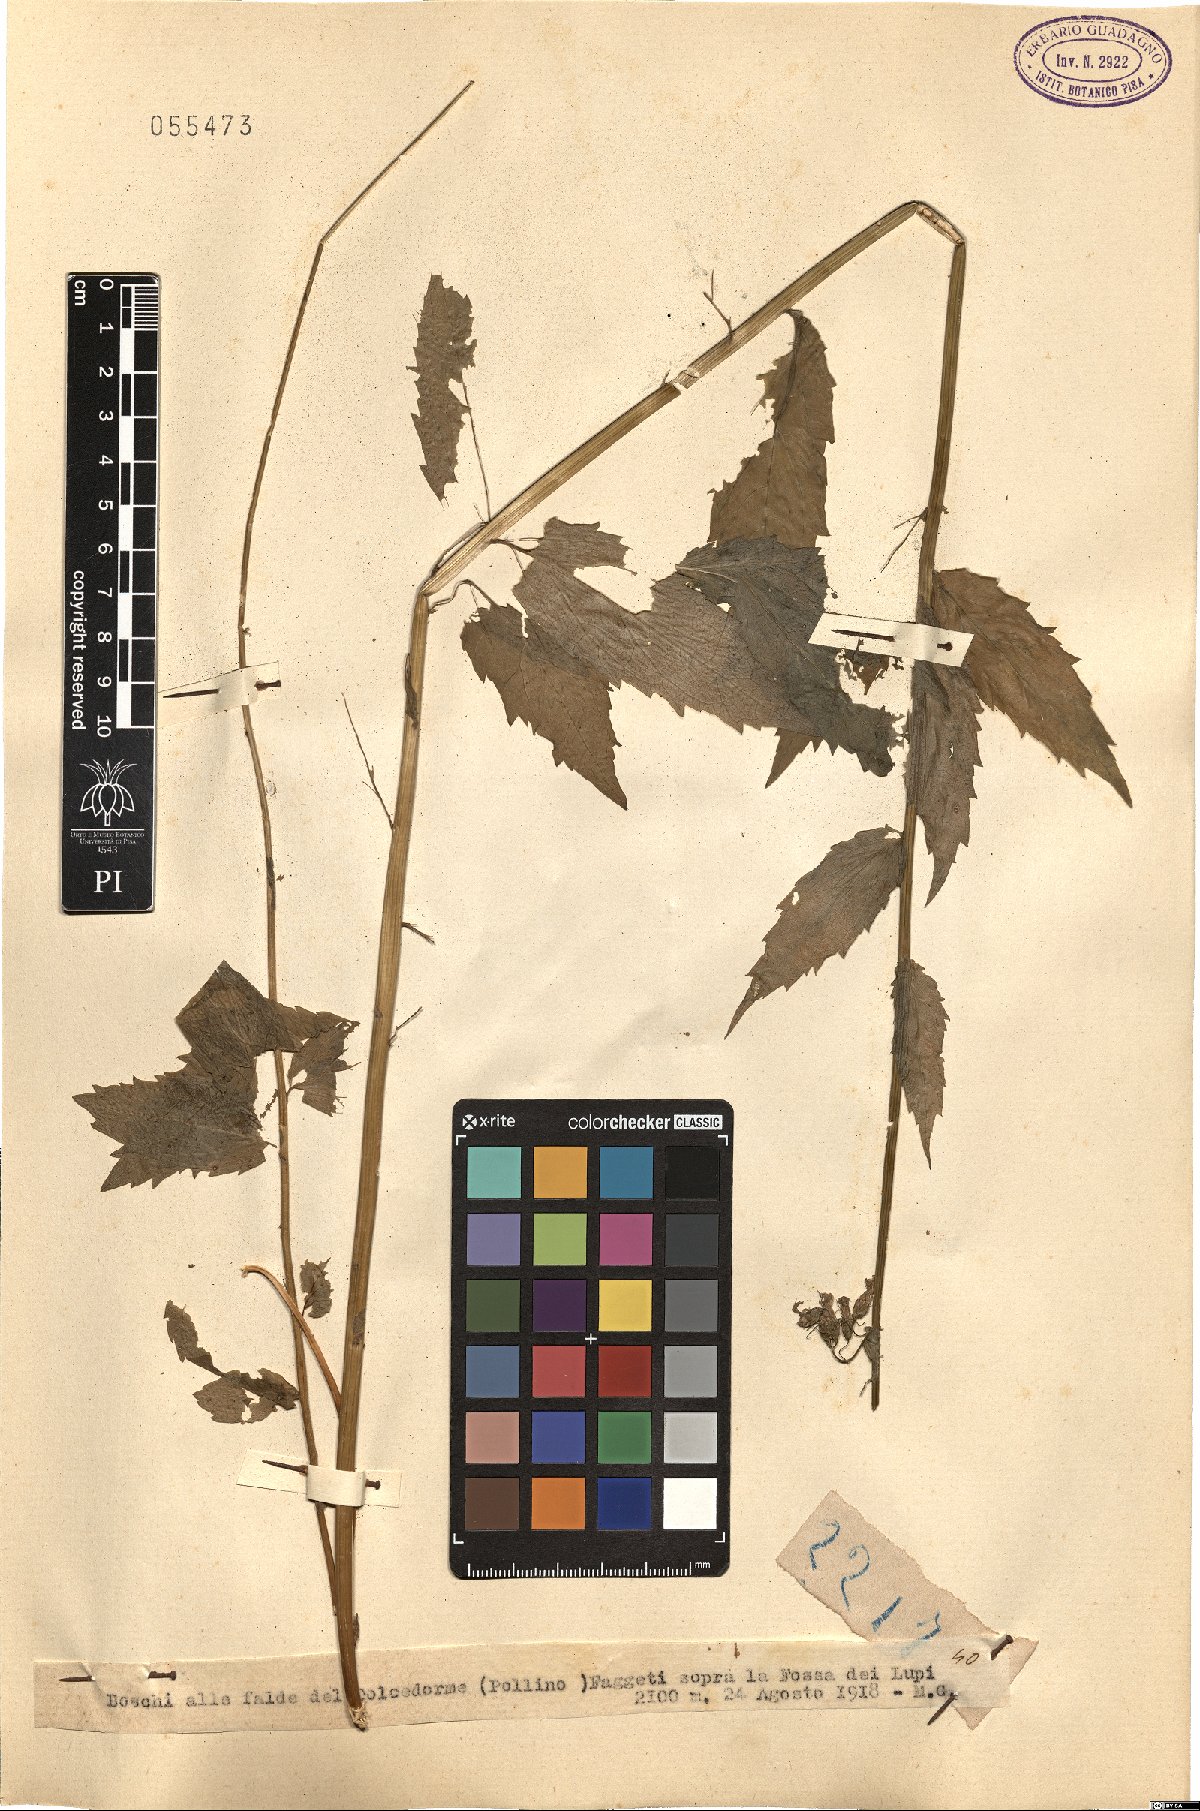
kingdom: Plantae
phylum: Tracheophyta
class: Magnoliopsida
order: Asterales
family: Campanulaceae
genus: Campanula
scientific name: Campanula
